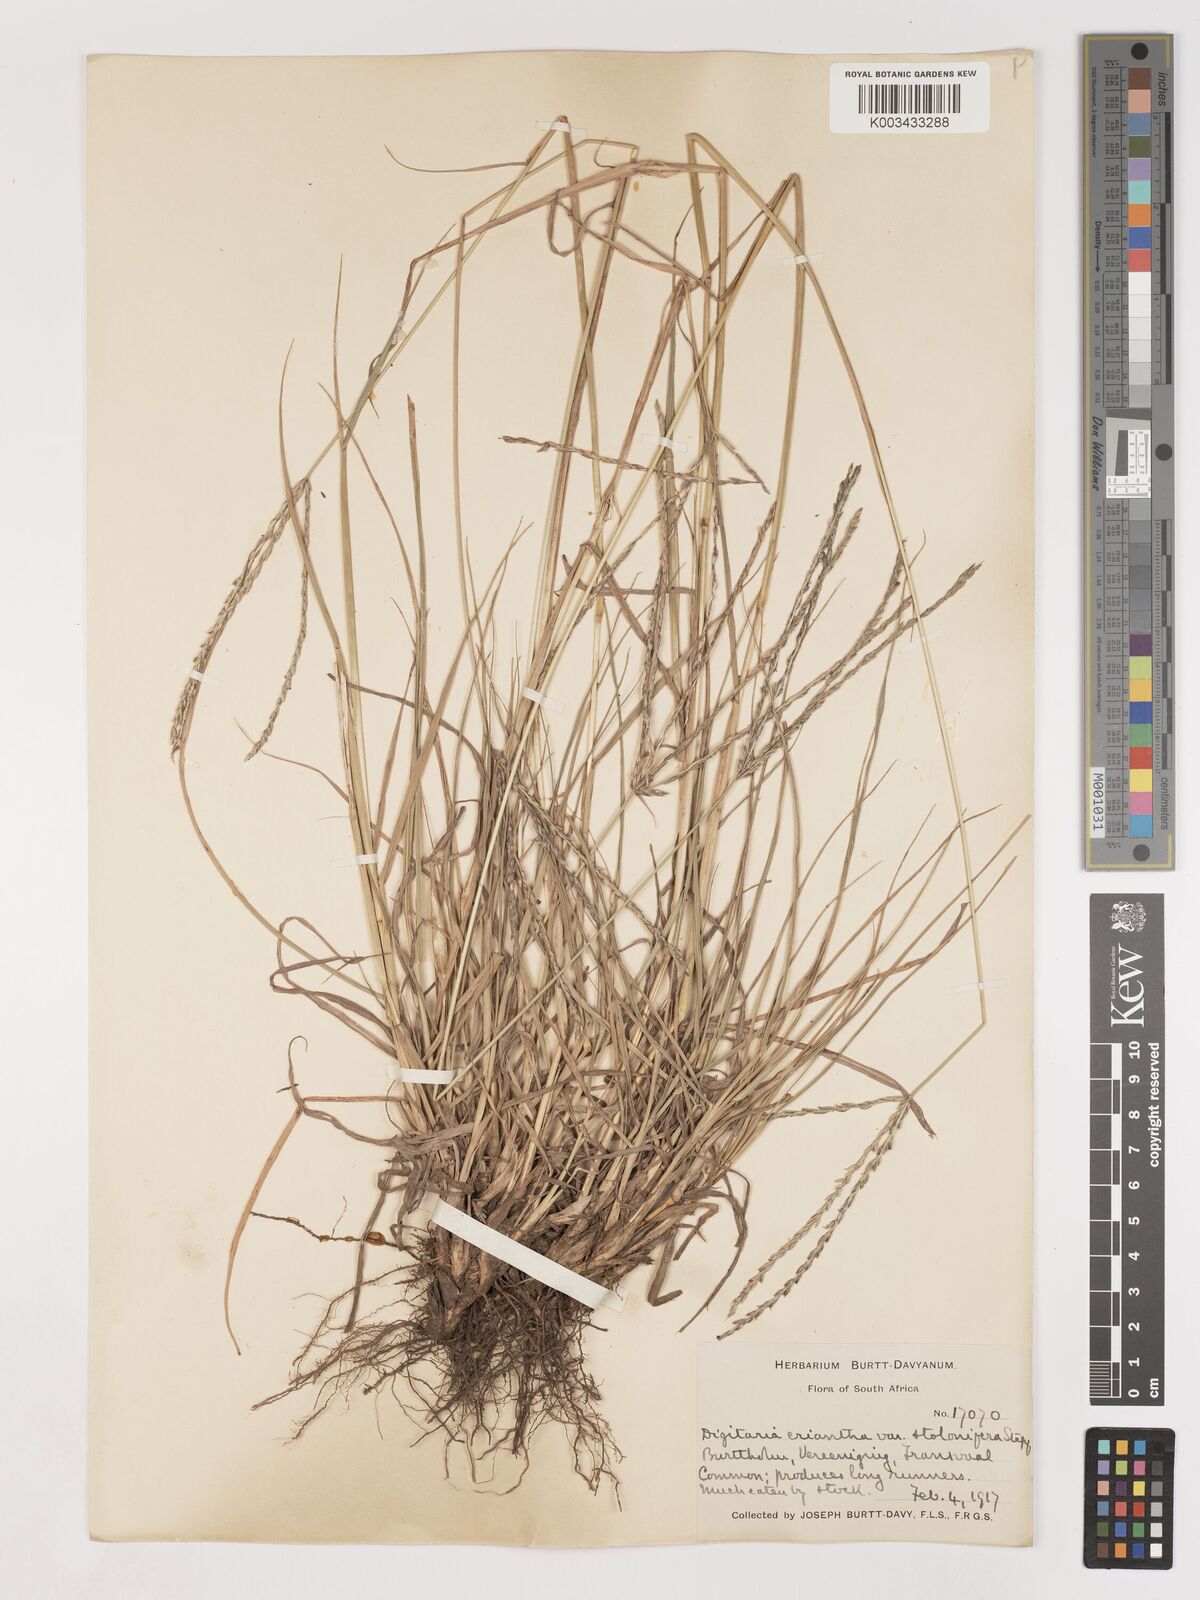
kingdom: Plantae
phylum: Tracheophyta
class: Liliopsida
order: Poales
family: Poaceae
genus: Digitaria
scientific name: Digitaria eriantha
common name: Digitgrass
